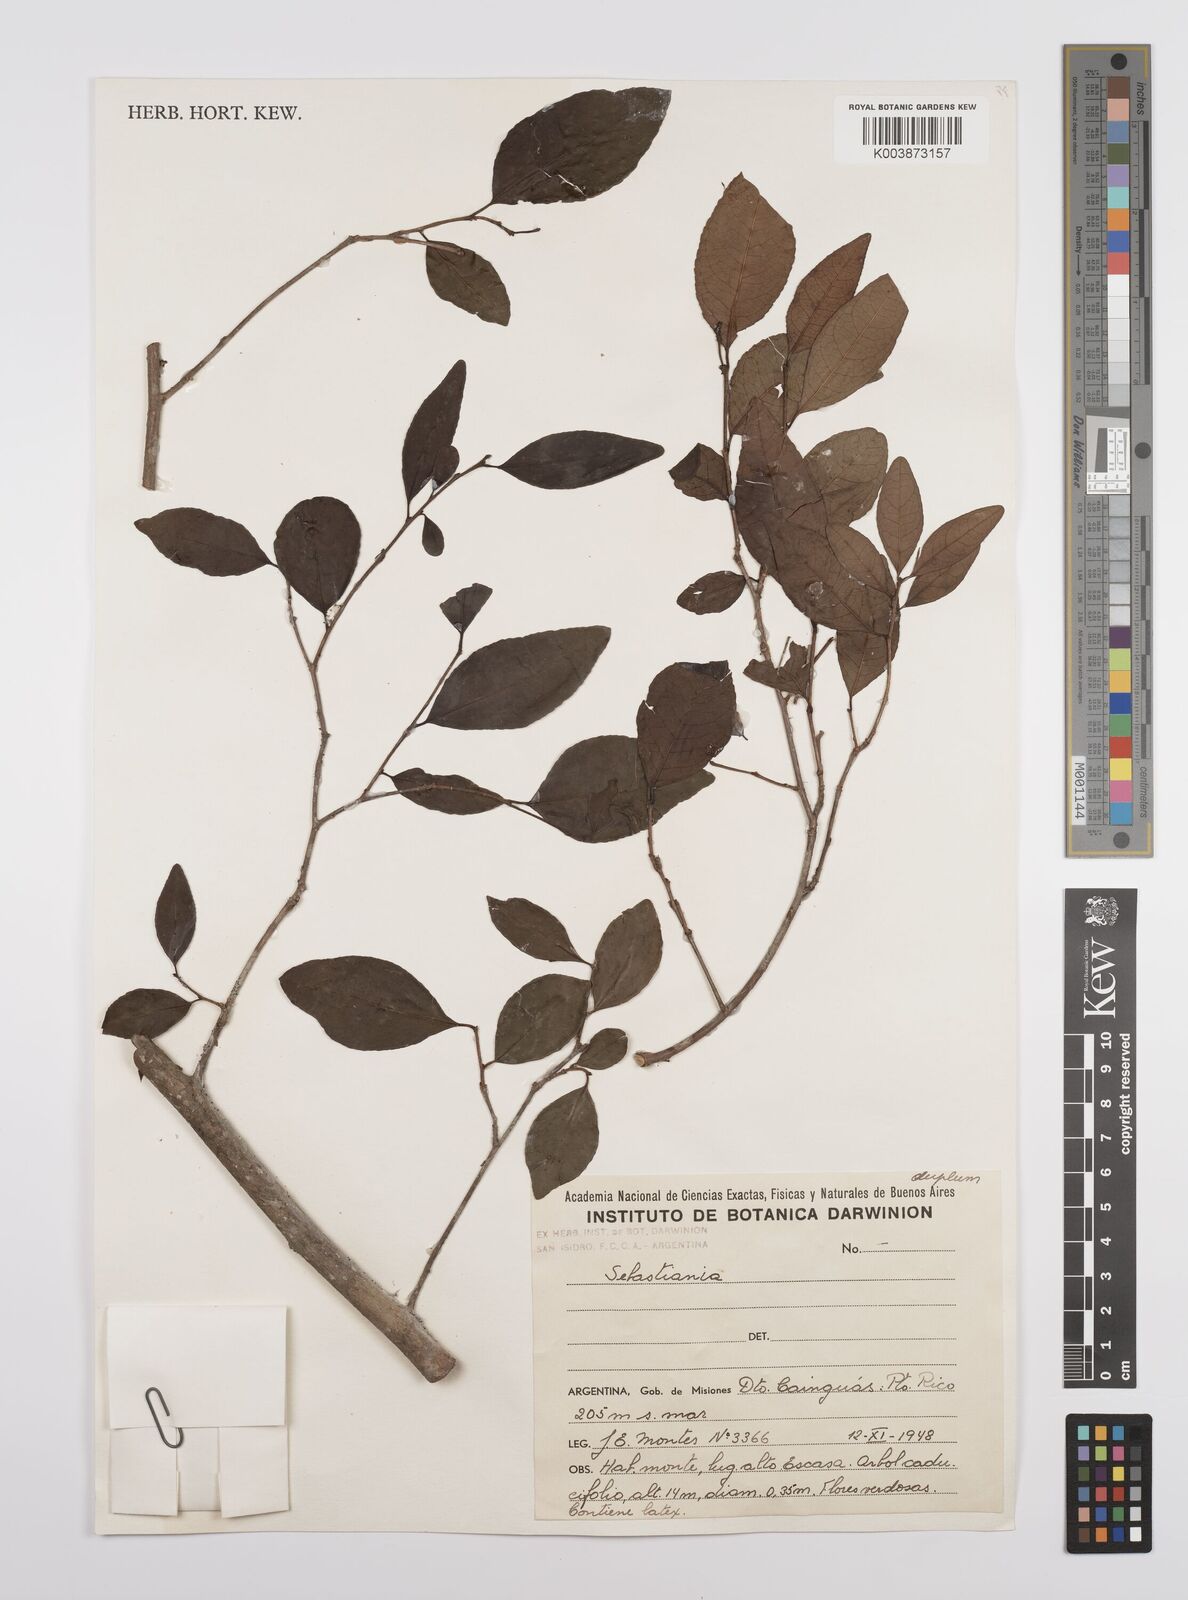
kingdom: Plantae
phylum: Tracheophyta
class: Magnoliopsida
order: Malpighiales
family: Euphorbiaceae
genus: Sebastiania
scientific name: Sebastiania
